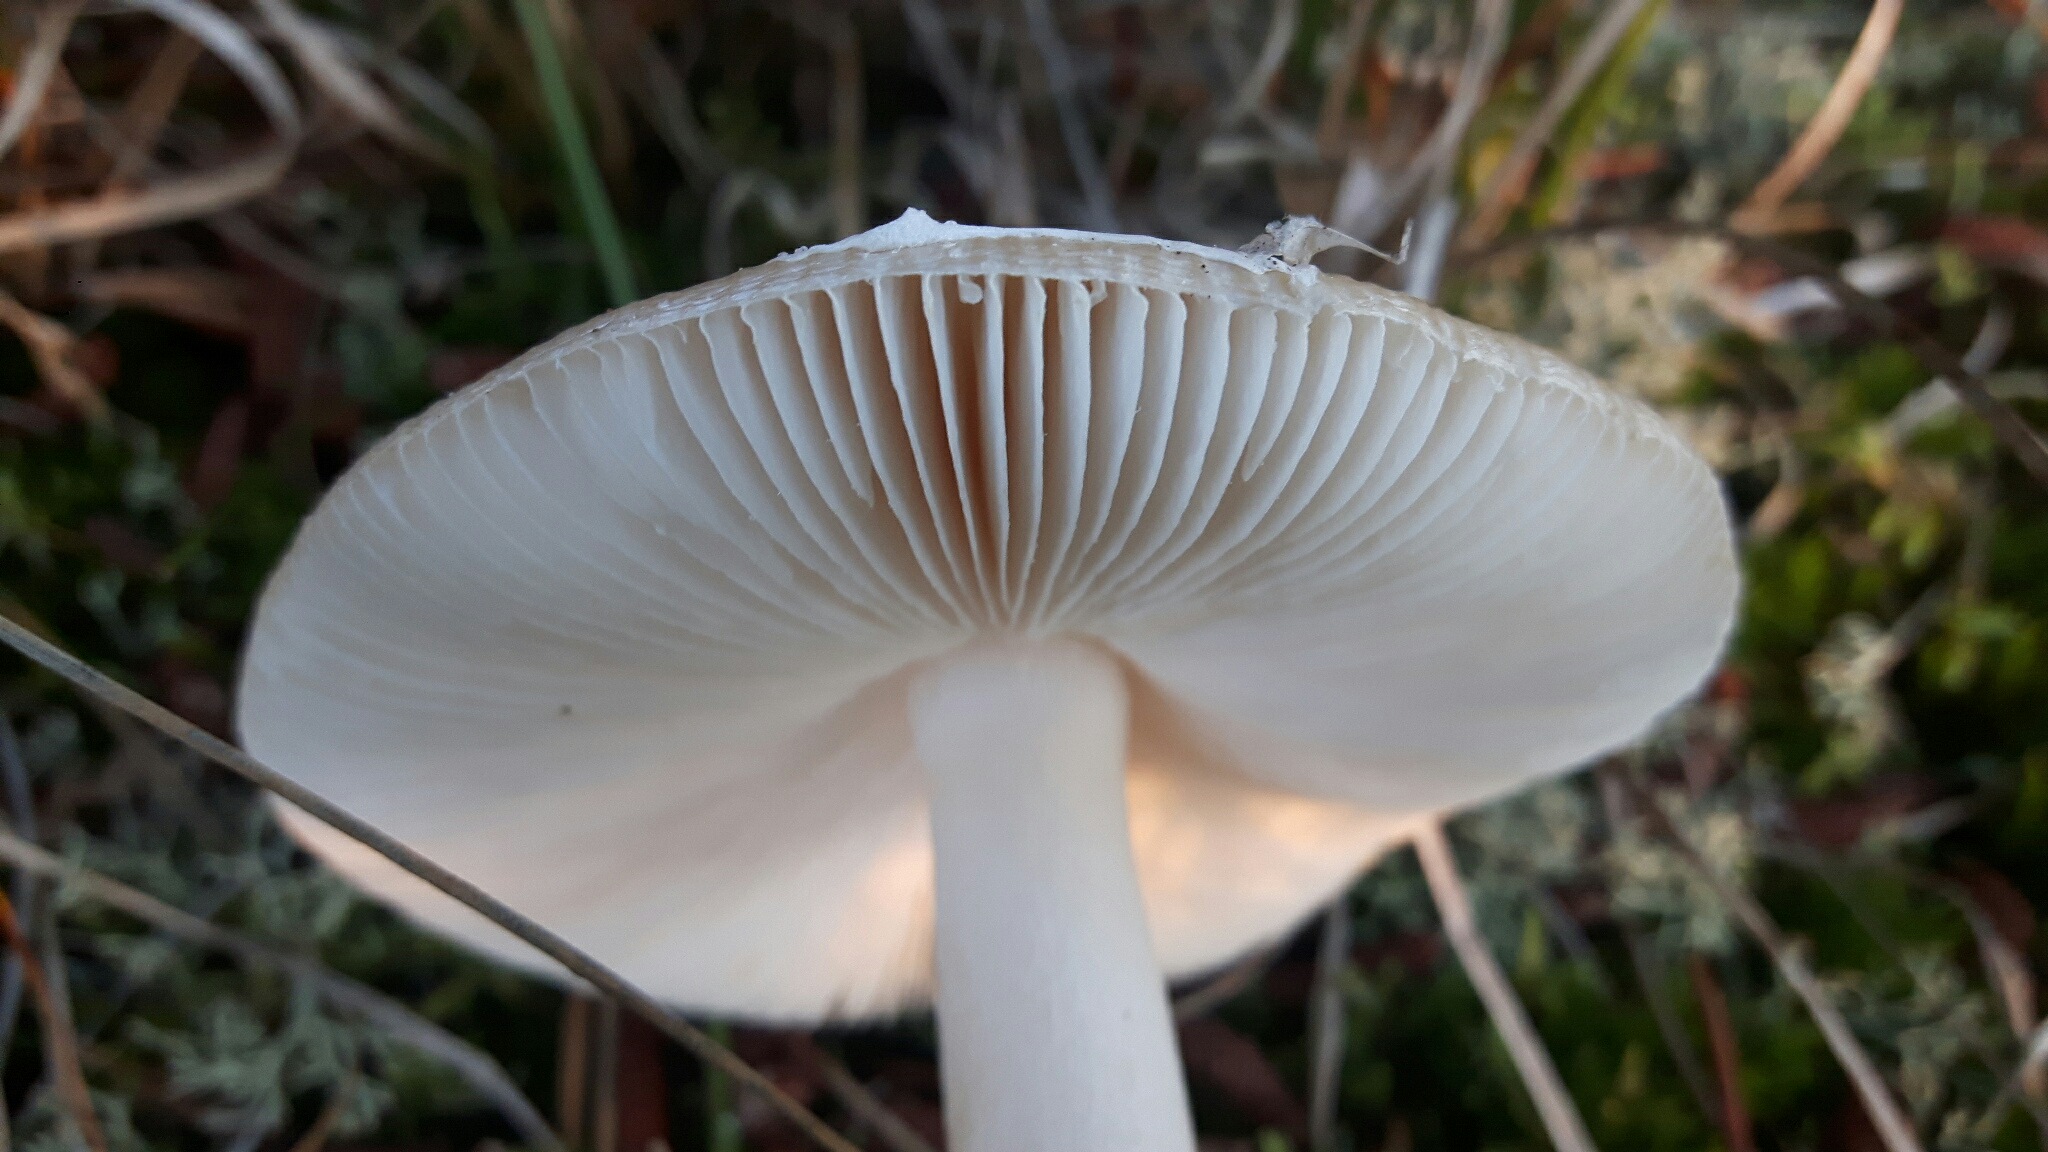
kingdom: Fungi
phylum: Basidiomycota
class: Agaricomycetes
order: Agaricales
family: Pluteaceae
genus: Volvopluteus
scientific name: Volvopluteus gloiocephalus
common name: høj posesvamp
